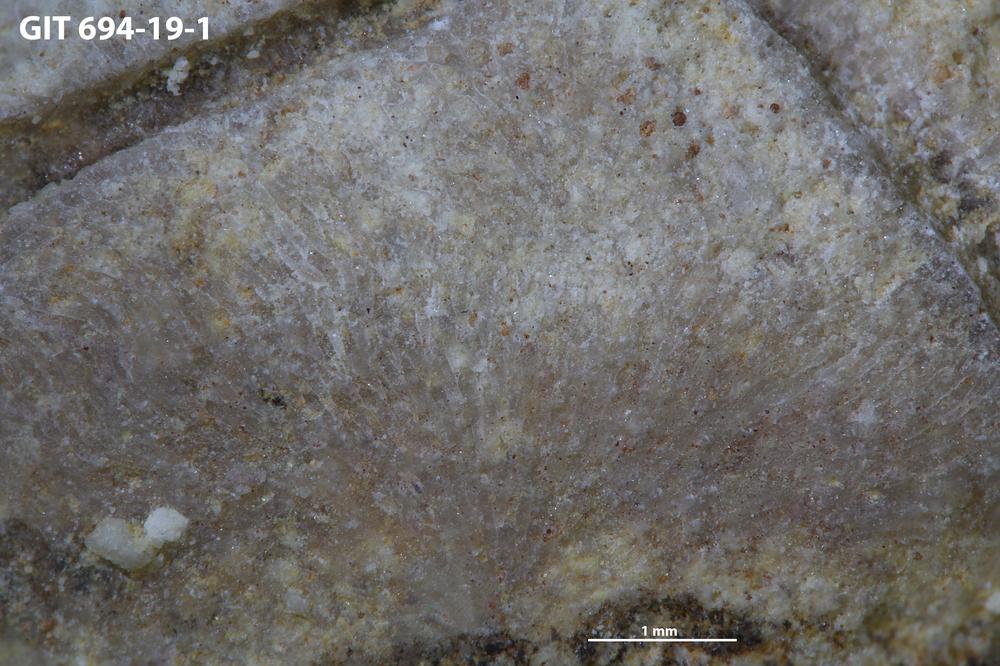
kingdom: Animalia
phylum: Bryozoa
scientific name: Bryozoa
